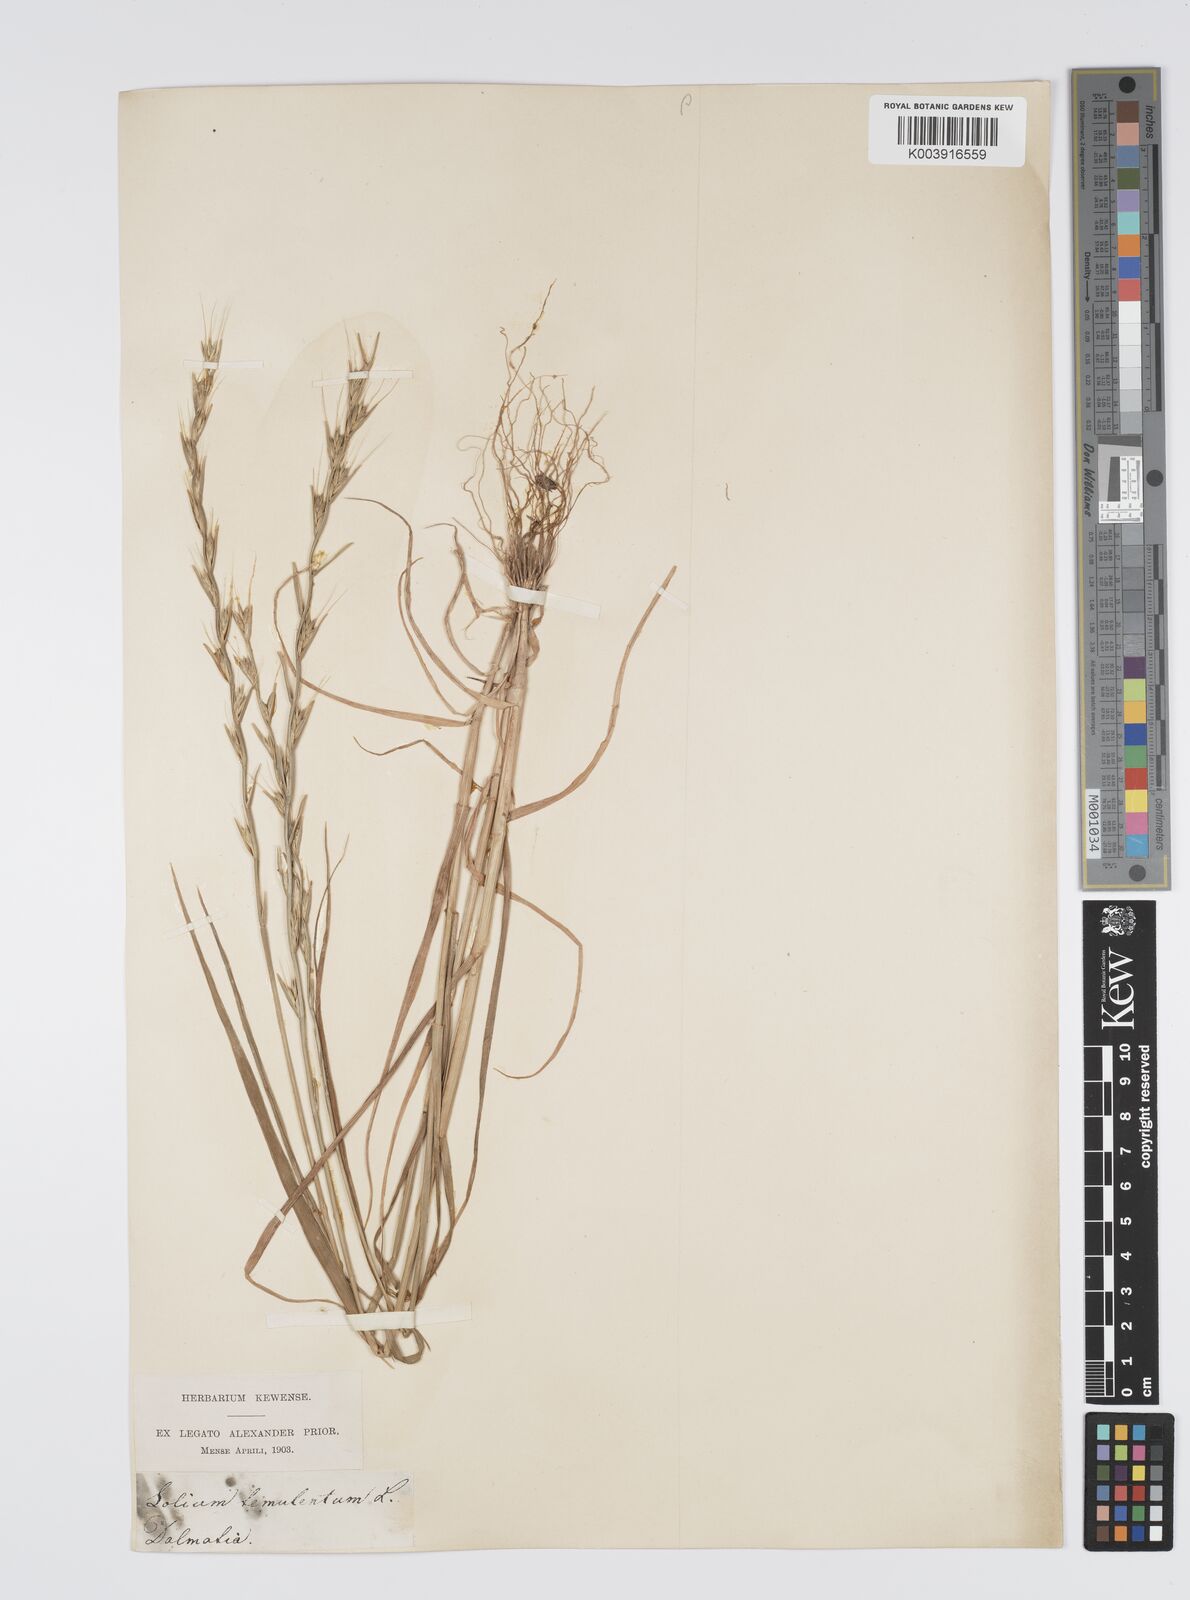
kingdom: Plantae
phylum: Tracheophyta
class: Liliopsida
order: Poales
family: Poaceae
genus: Lolium
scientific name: Lolium temulentum
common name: Darnel
